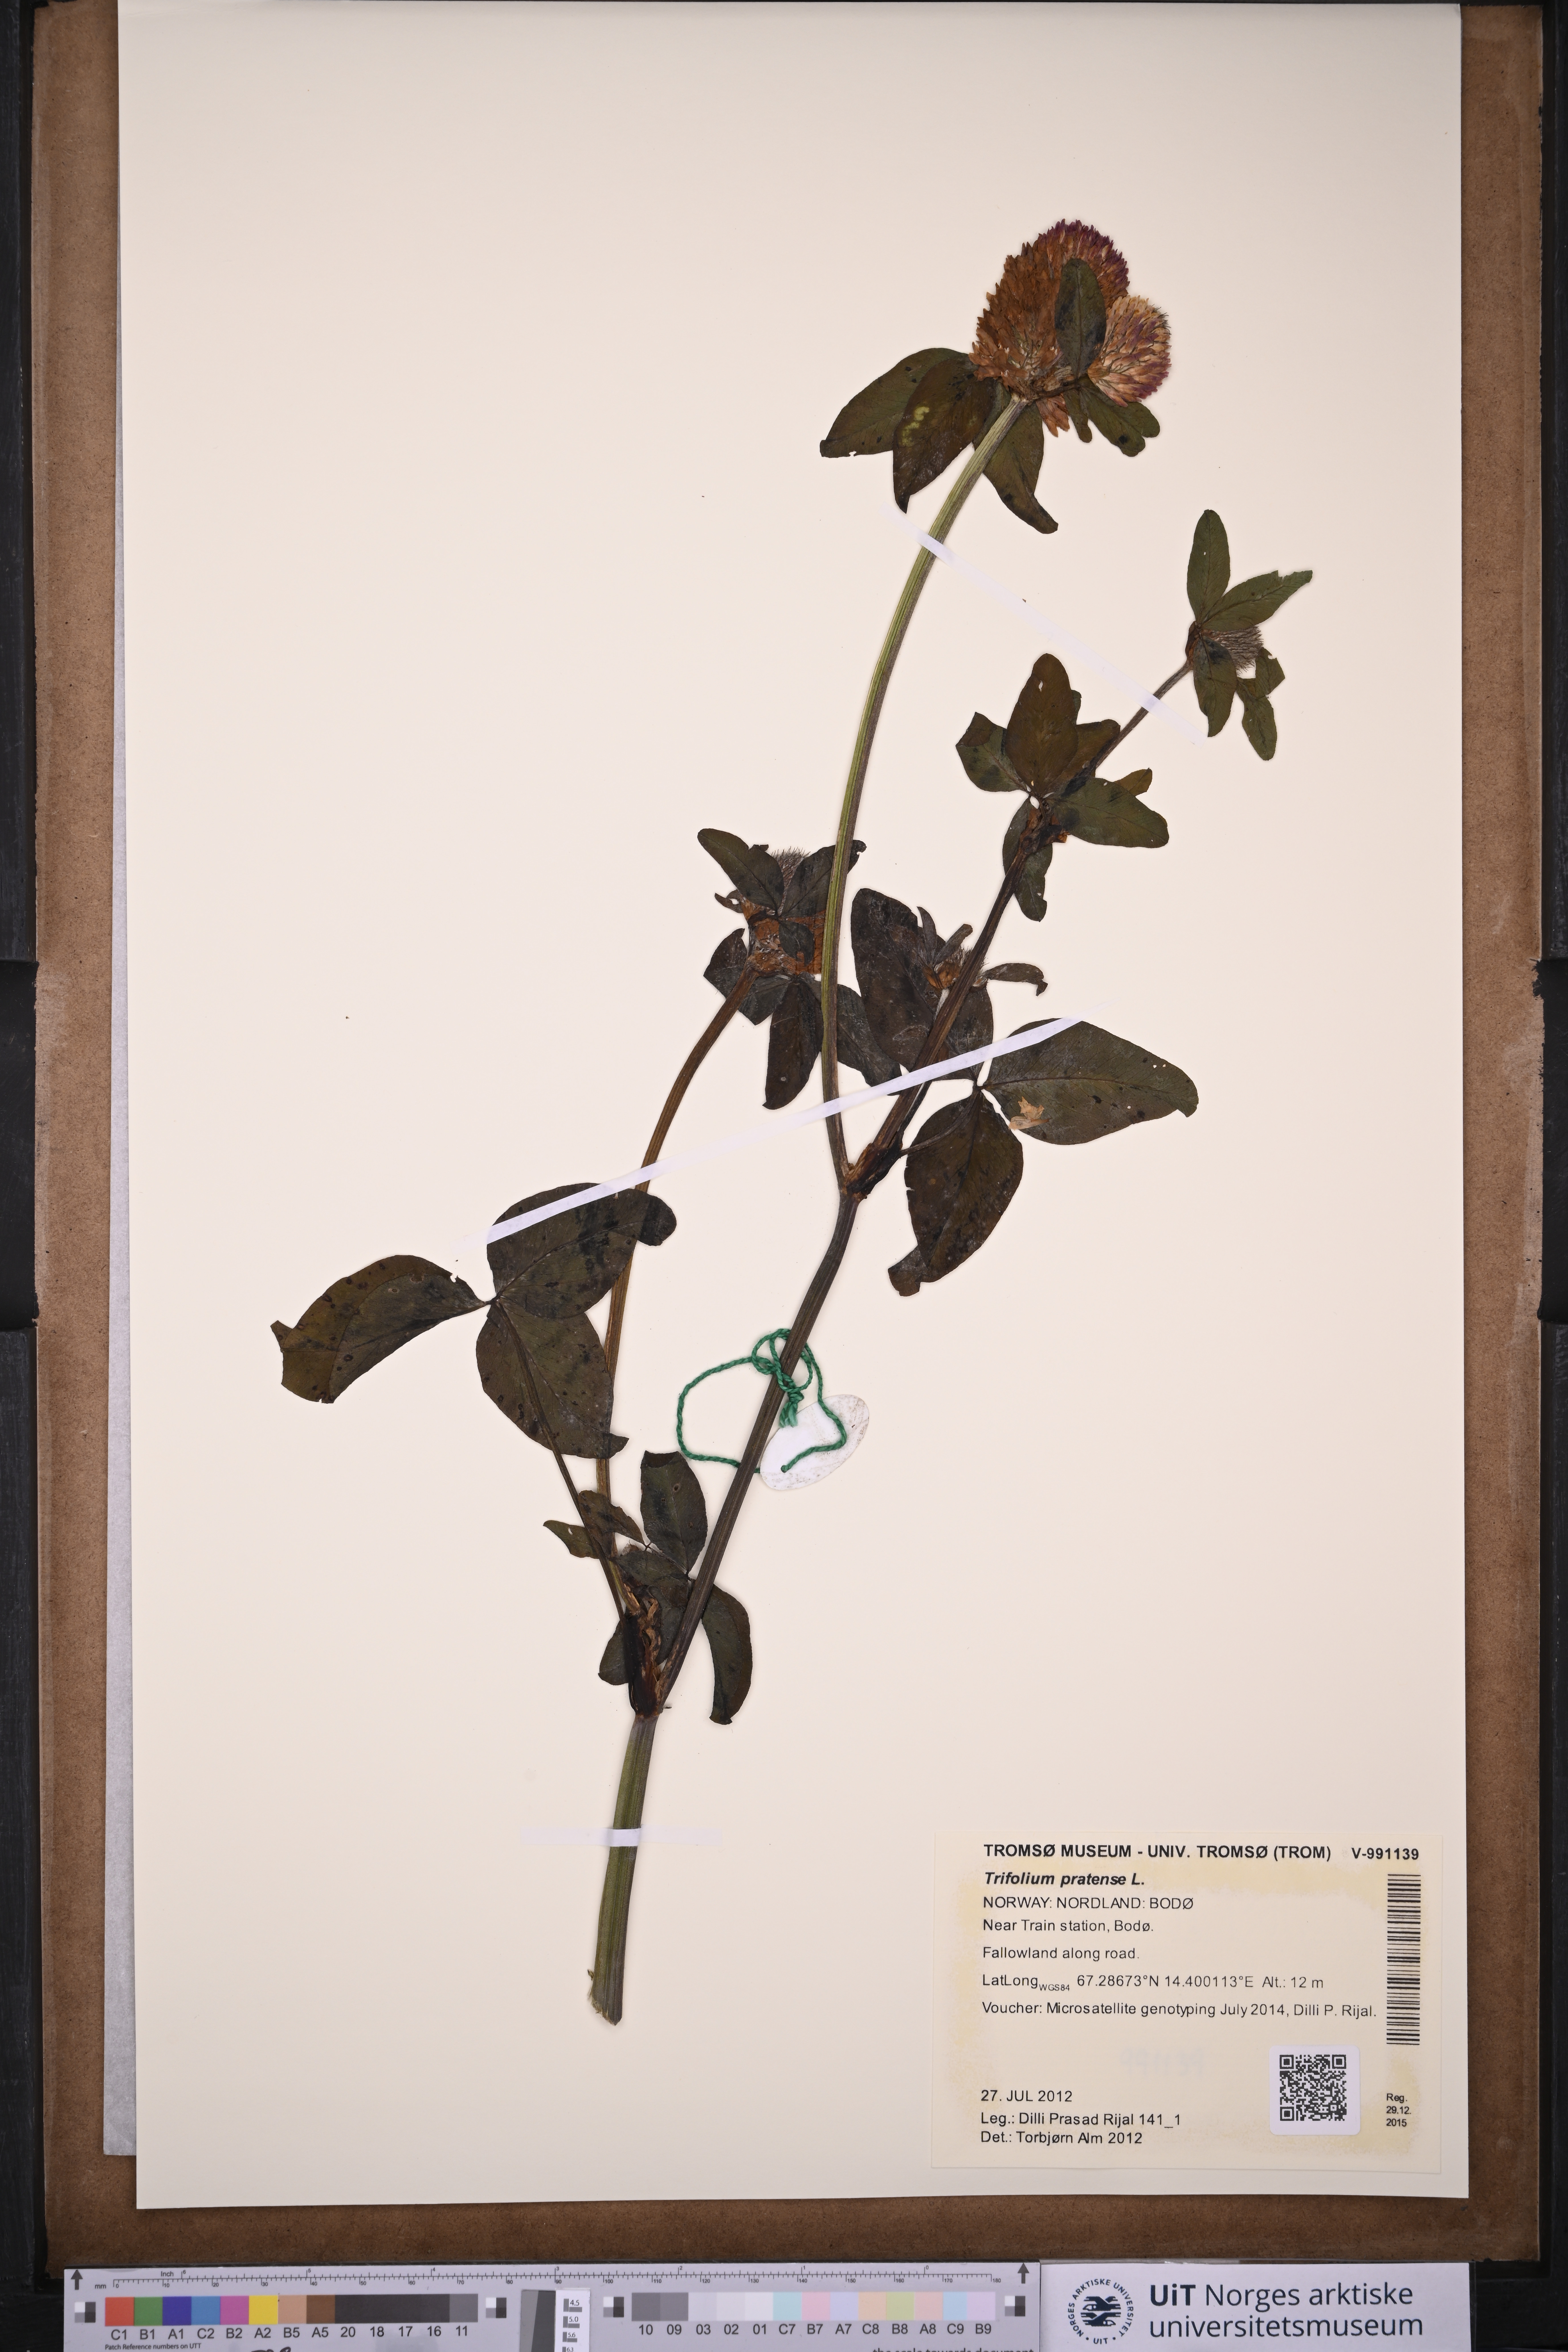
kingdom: Plantae
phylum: Tracheophyta
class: Magnoliopsida
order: Fabales
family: Fabaceae
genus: Trifolium
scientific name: Trifolium pratense
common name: Red clover
